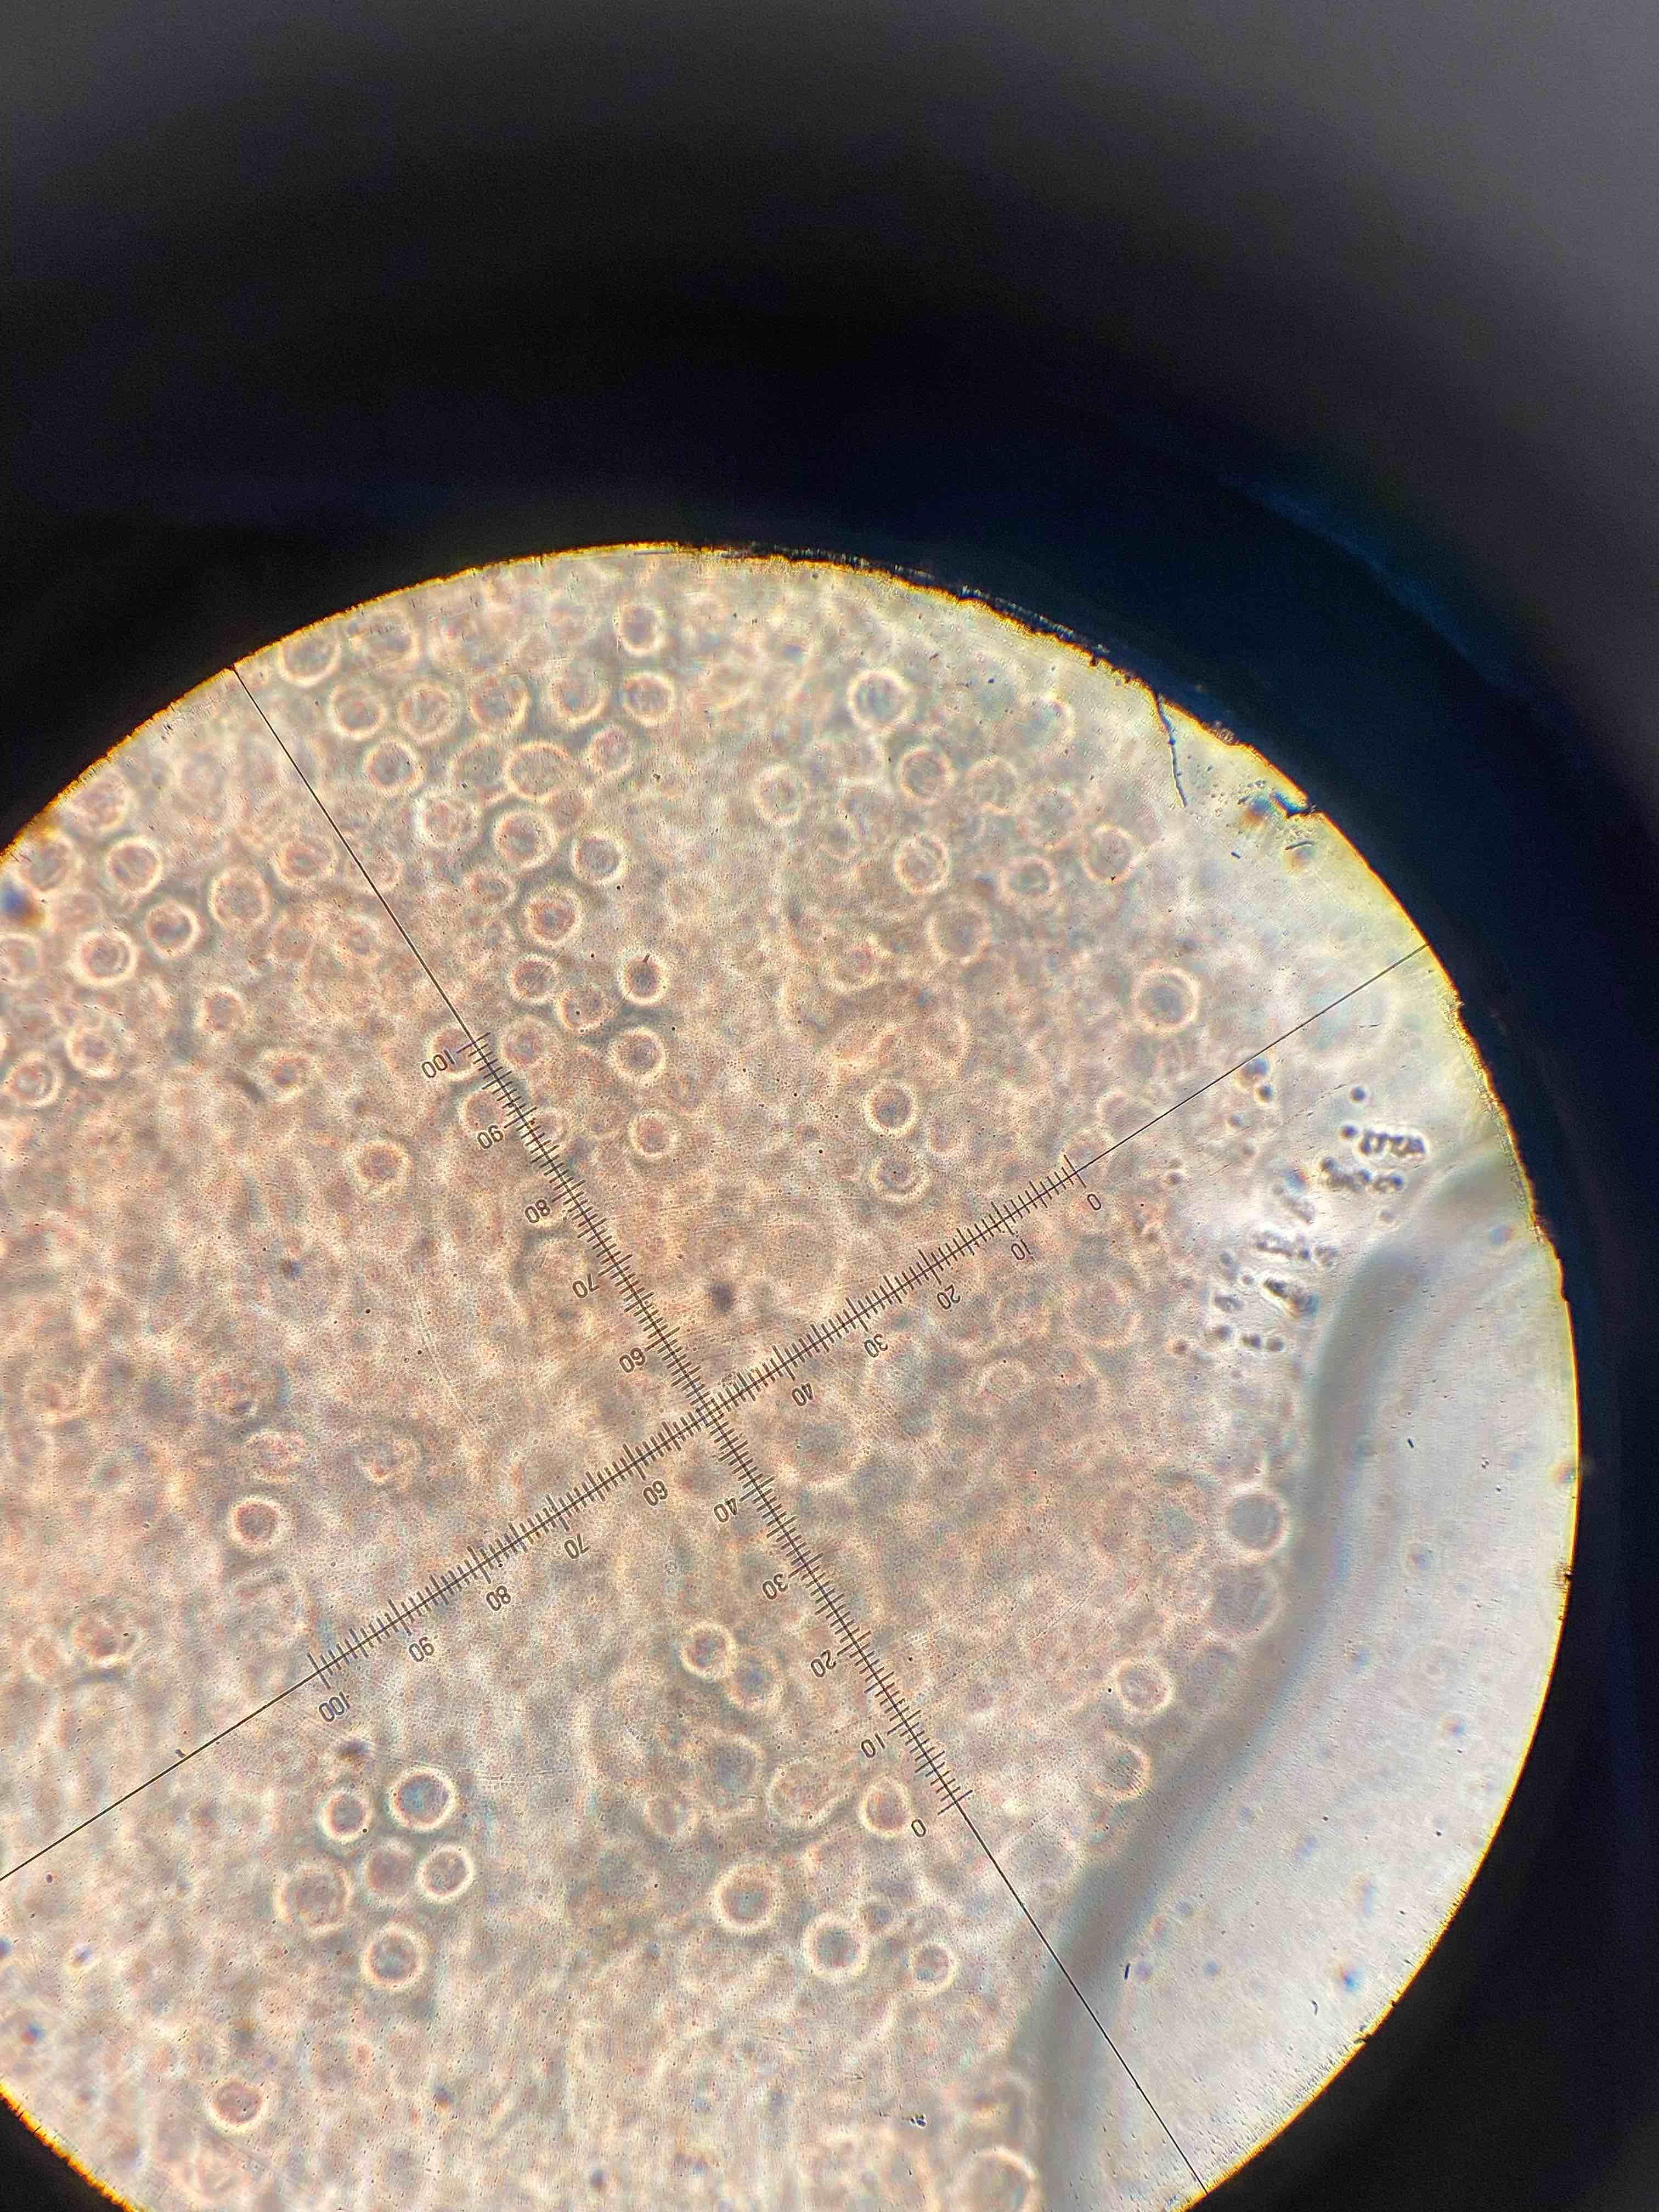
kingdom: Fungi
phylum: Basidiomycota
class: Agaricomycetes
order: Agaricales
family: Hydnangiaceae
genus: Laccaria
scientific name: Laccaria laccata
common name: rød ametysthat
